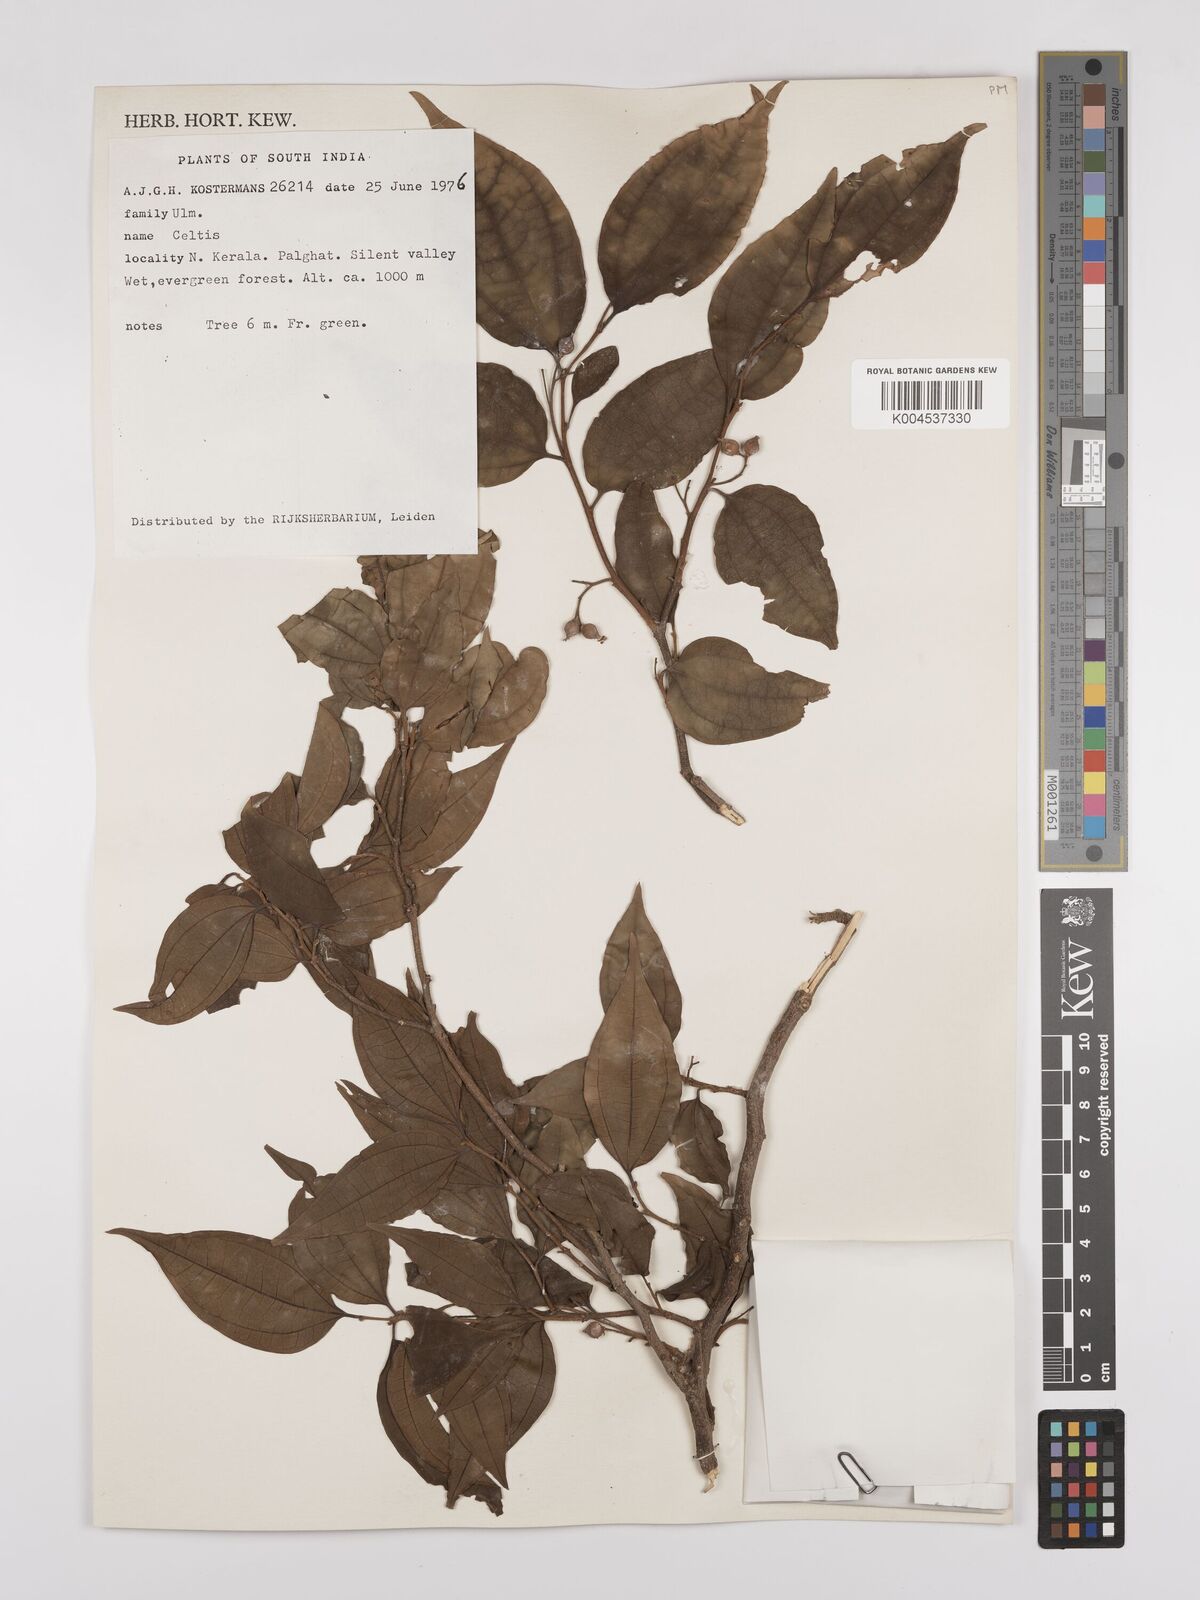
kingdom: Plantae
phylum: Tracheophyta
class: Magnoliopsida
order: Rosales
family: Cannabaceae
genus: Celtis
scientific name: Celtis
